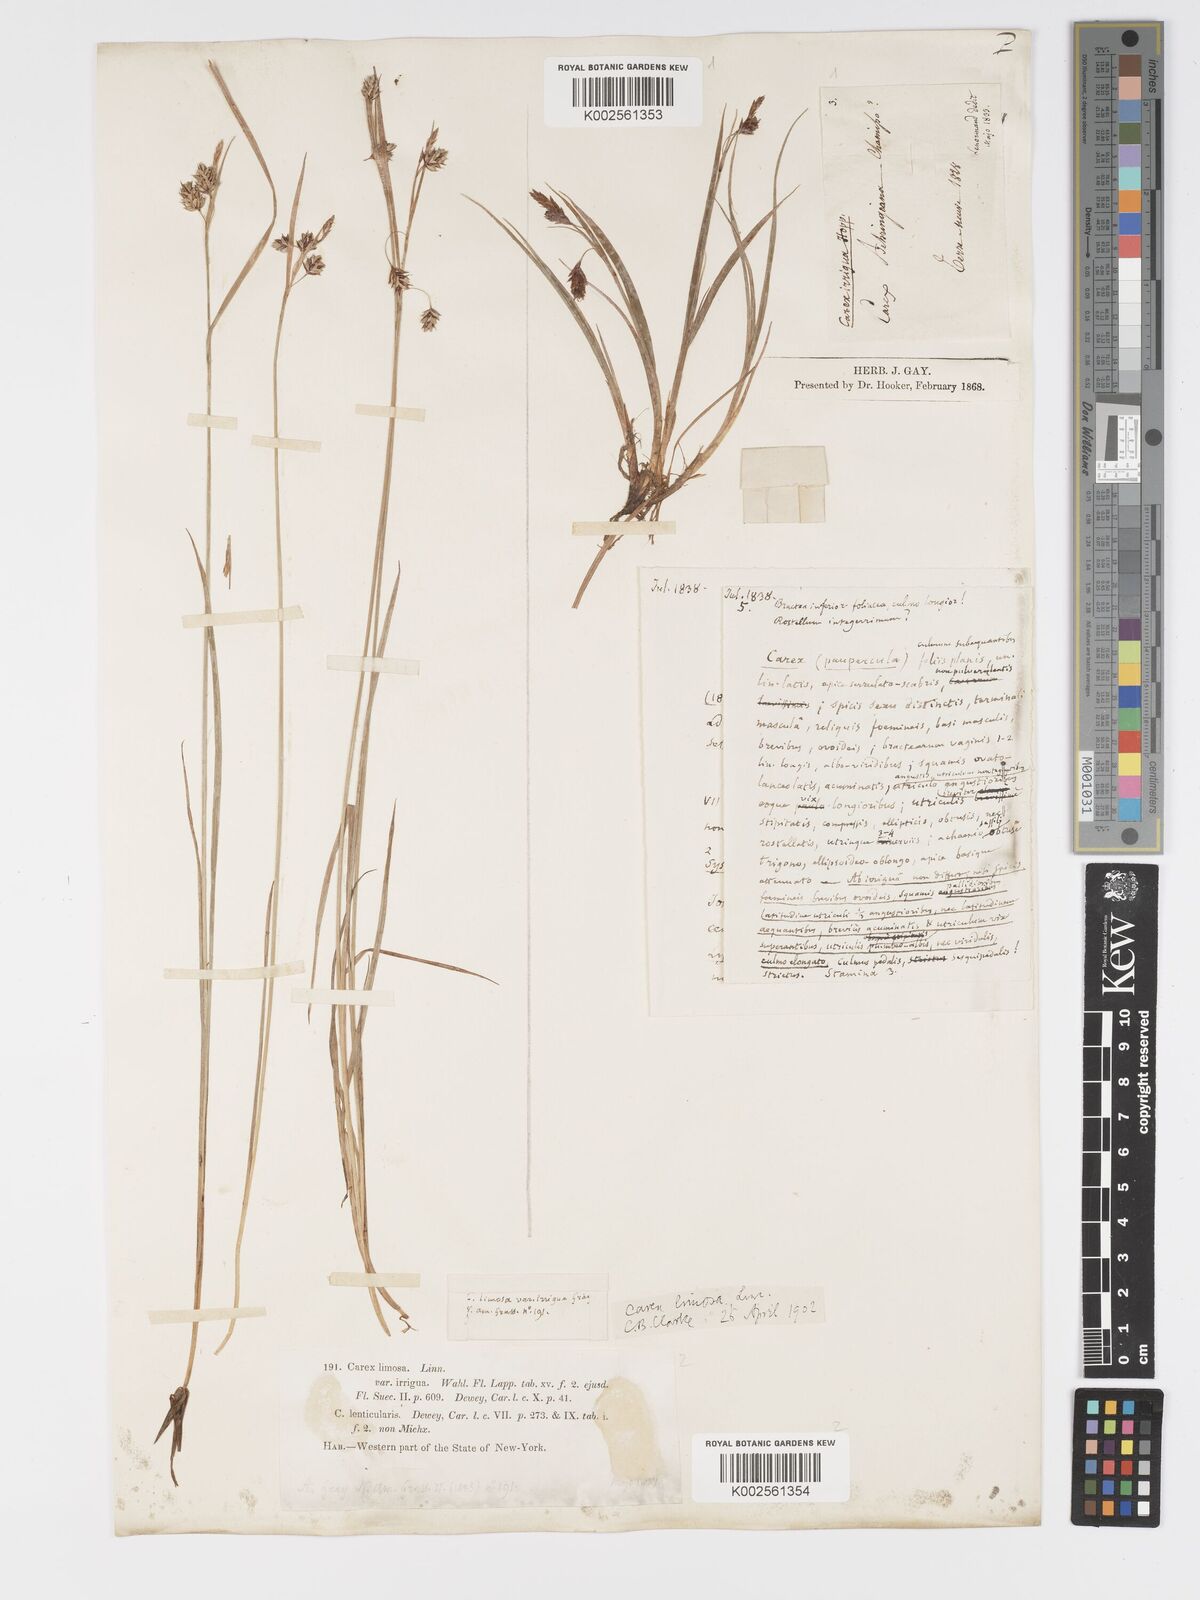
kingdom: Plantae
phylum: Tracheophyta
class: Liliopsida
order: Poales
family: Cyperaceae
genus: Carex
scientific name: Carex magellanica
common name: Bog sedge
